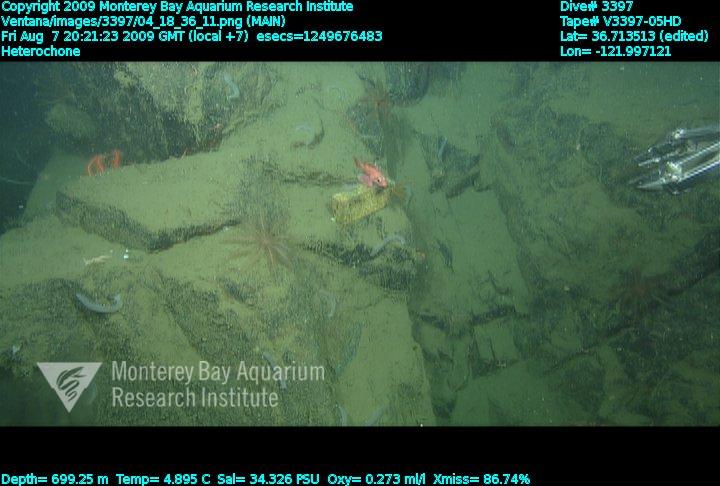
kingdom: Animalia
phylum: Porifera
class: Hexactinellida
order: Sceptrulophora
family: Aphrocallistidae
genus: Heterochone
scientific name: Heterochone
